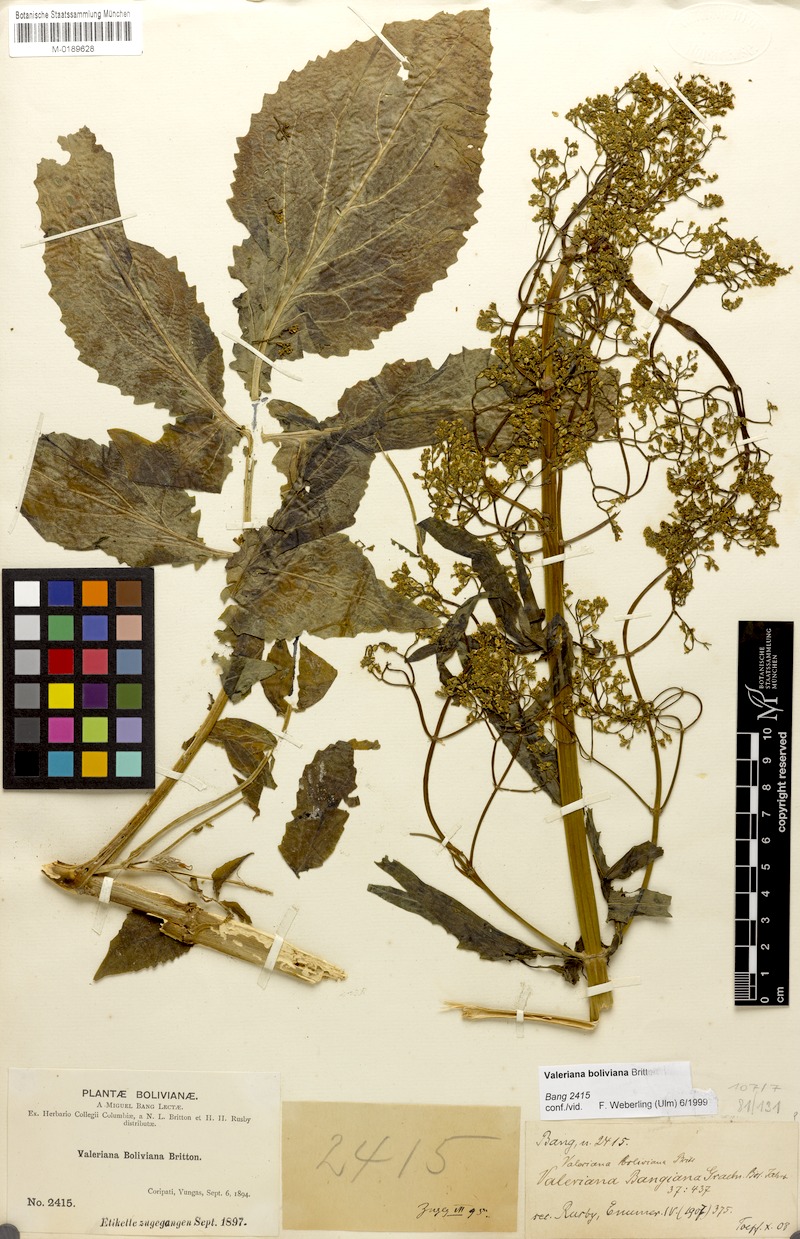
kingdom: Plantae
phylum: Tracheophyta
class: Magnoliopsida
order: Dipsacales
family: Caprifoliaceae
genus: Valeriana
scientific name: Valeriana boliviana
